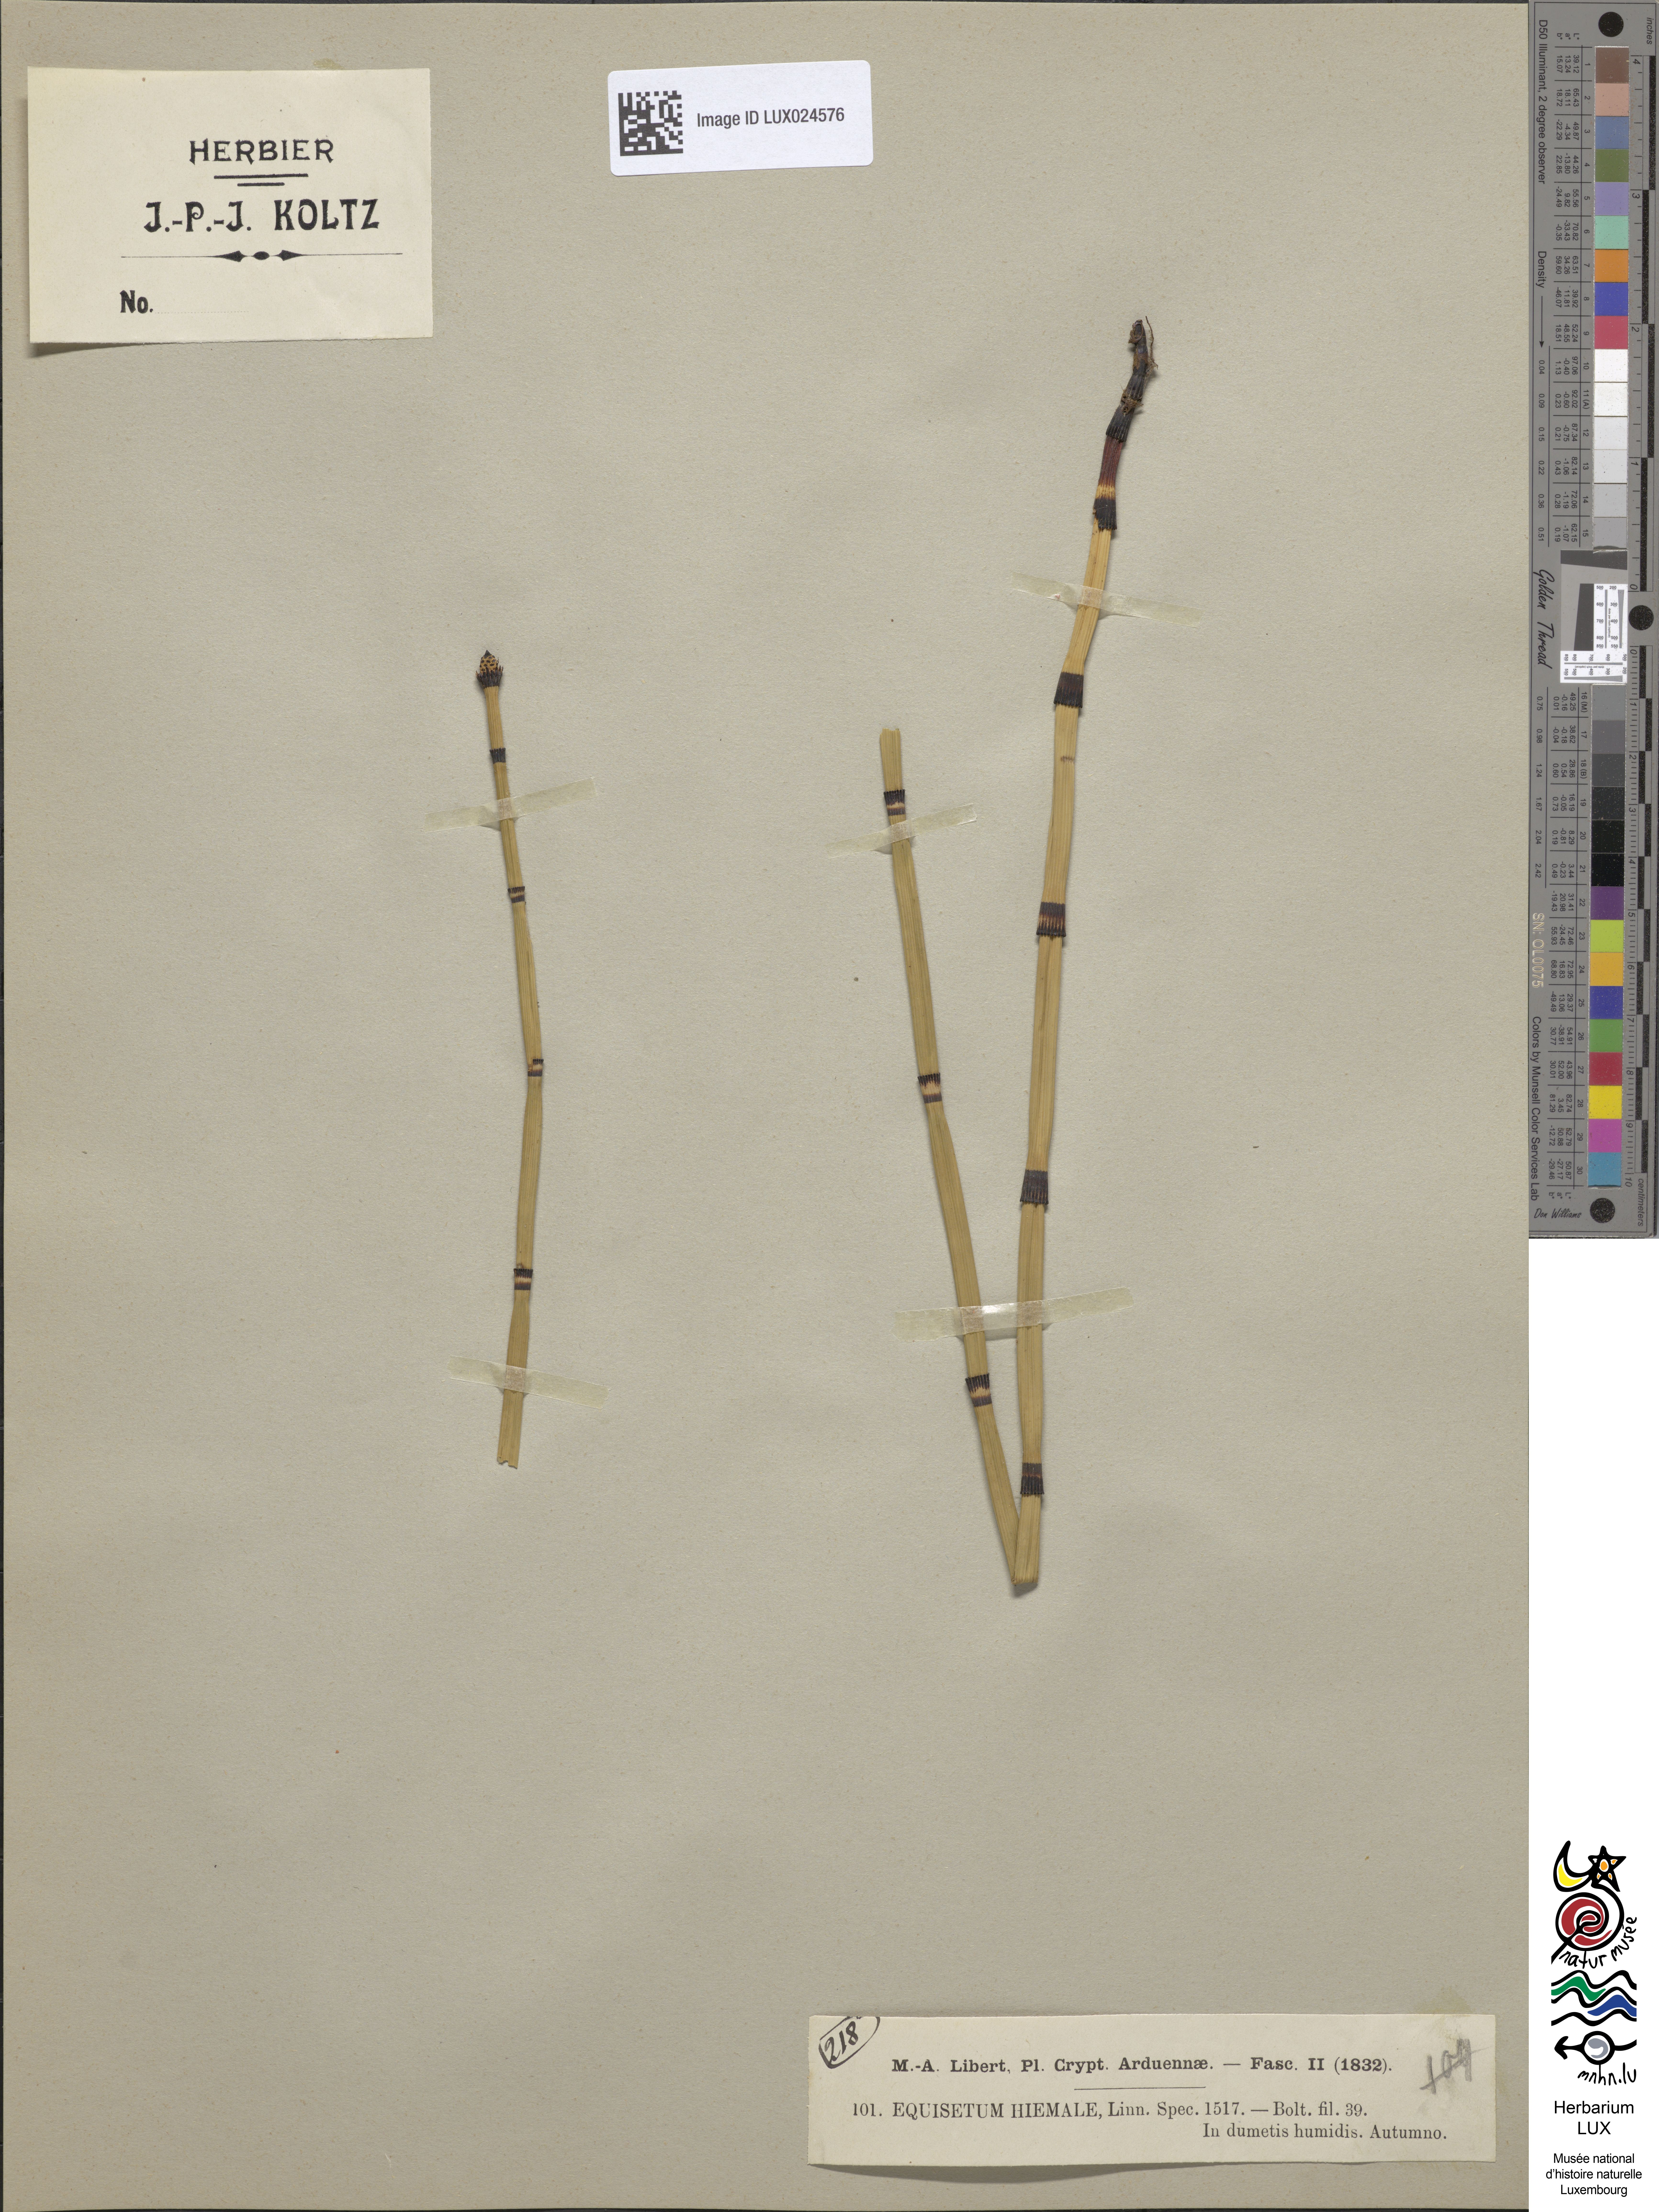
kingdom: Plantae
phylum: Tracheophyta
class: Polypodiopsida
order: Equisetales
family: Equisetaceae
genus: Equisetum
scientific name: Equisetum hyemale
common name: Rough horsetail
